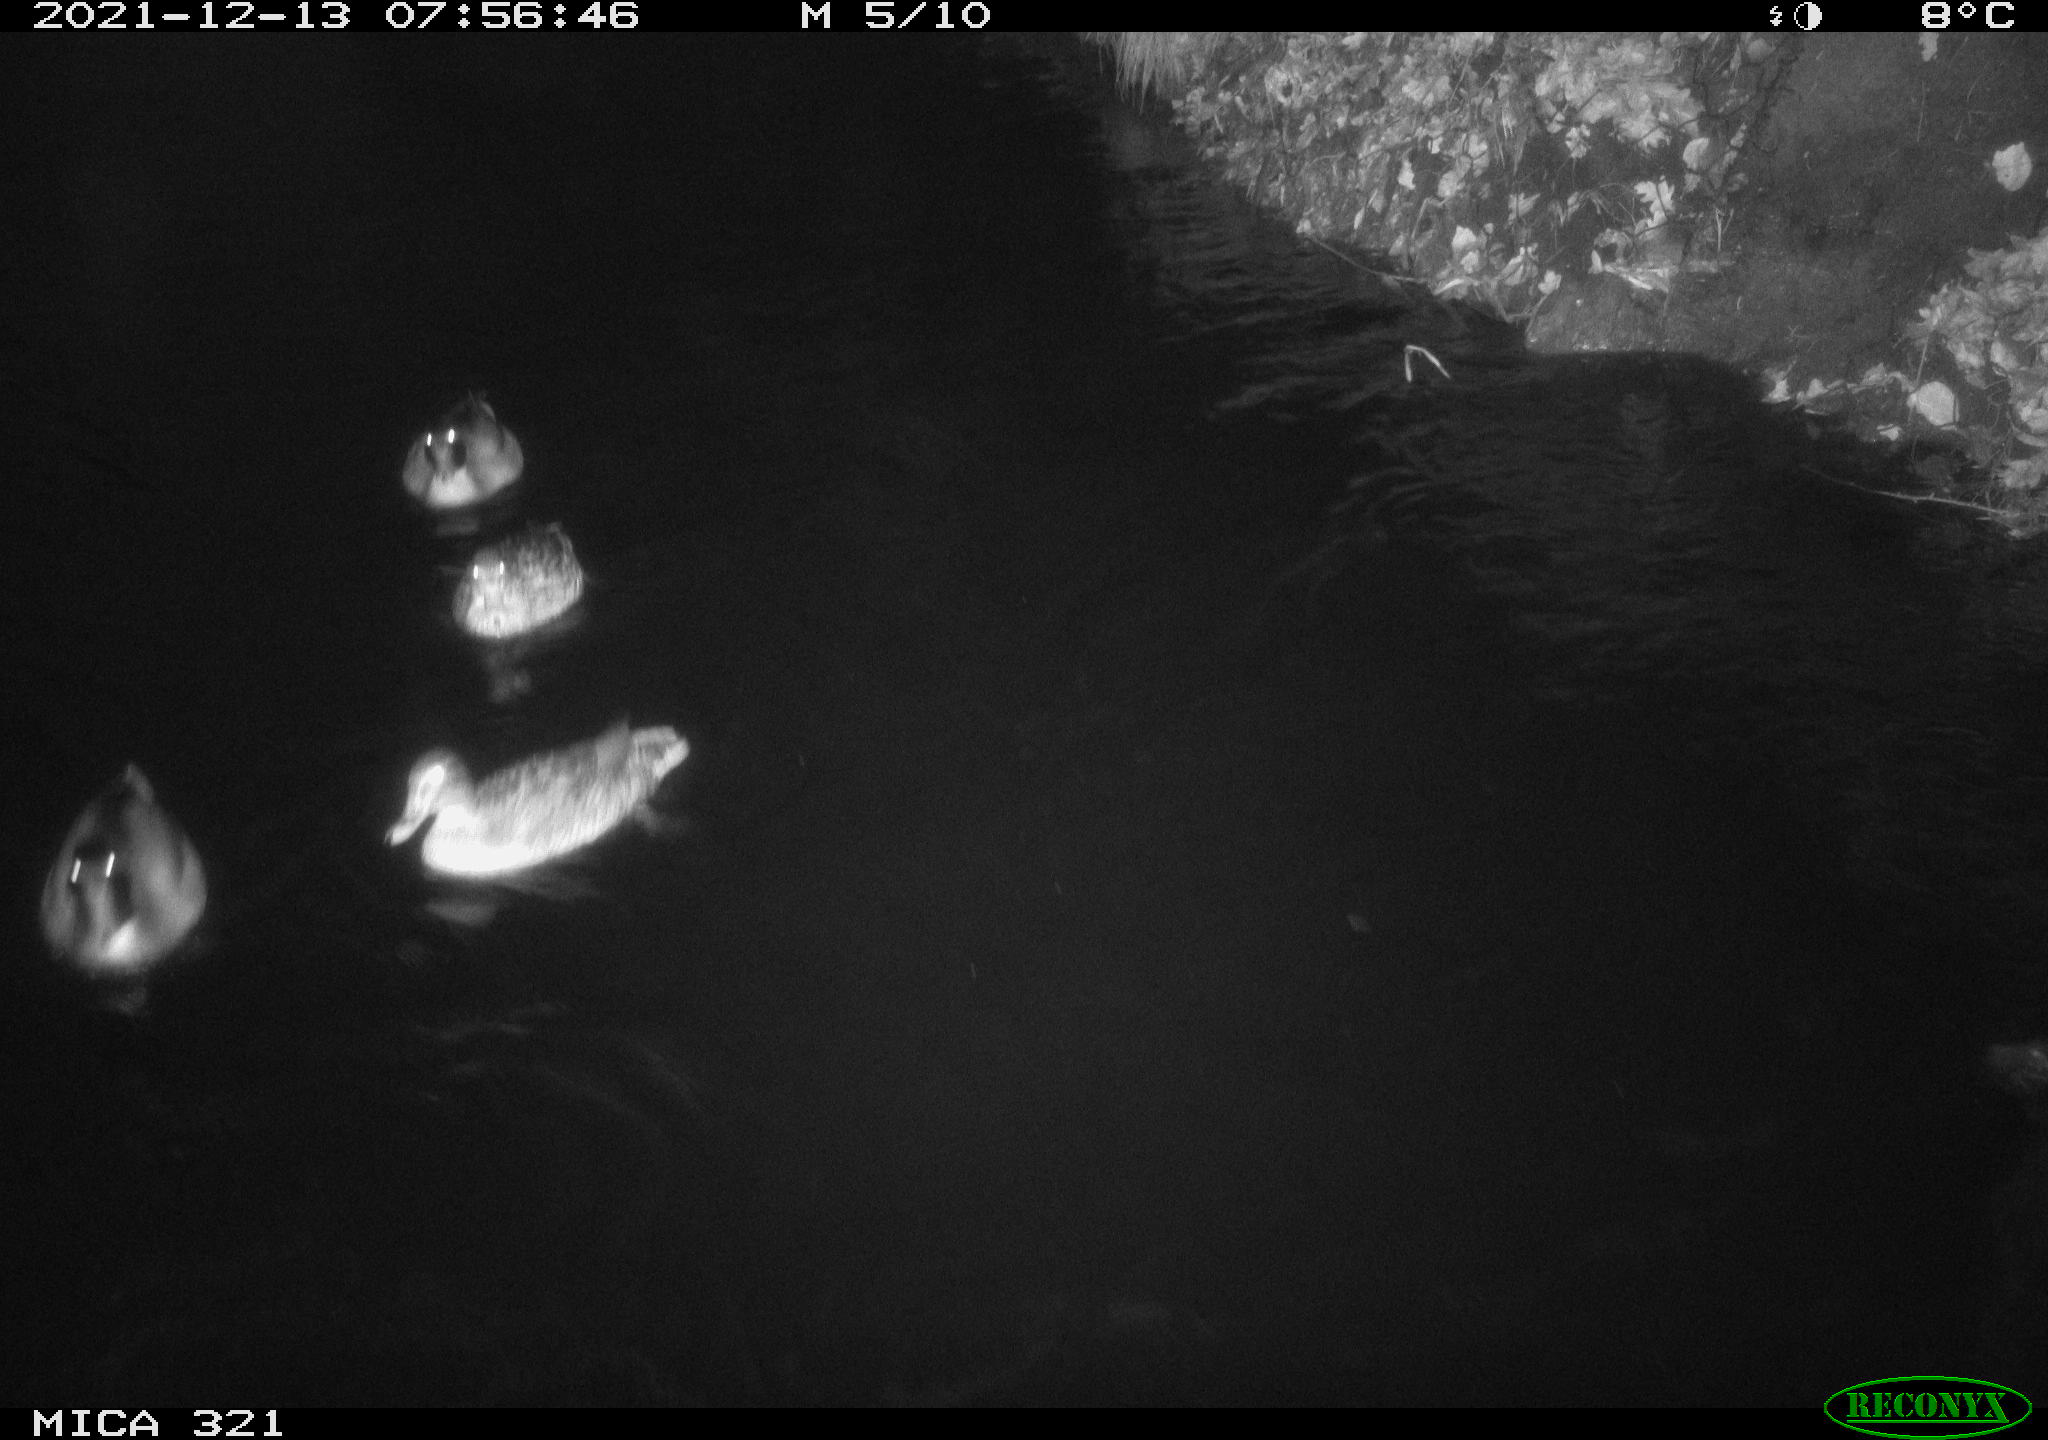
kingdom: Animalia
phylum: Chordata
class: Aves
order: Anseriformes
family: Anatidae
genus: Anas
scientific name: Anas
